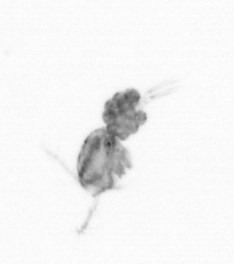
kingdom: Animalia
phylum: Arthropoda
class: Copepoda
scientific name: Copepoda
